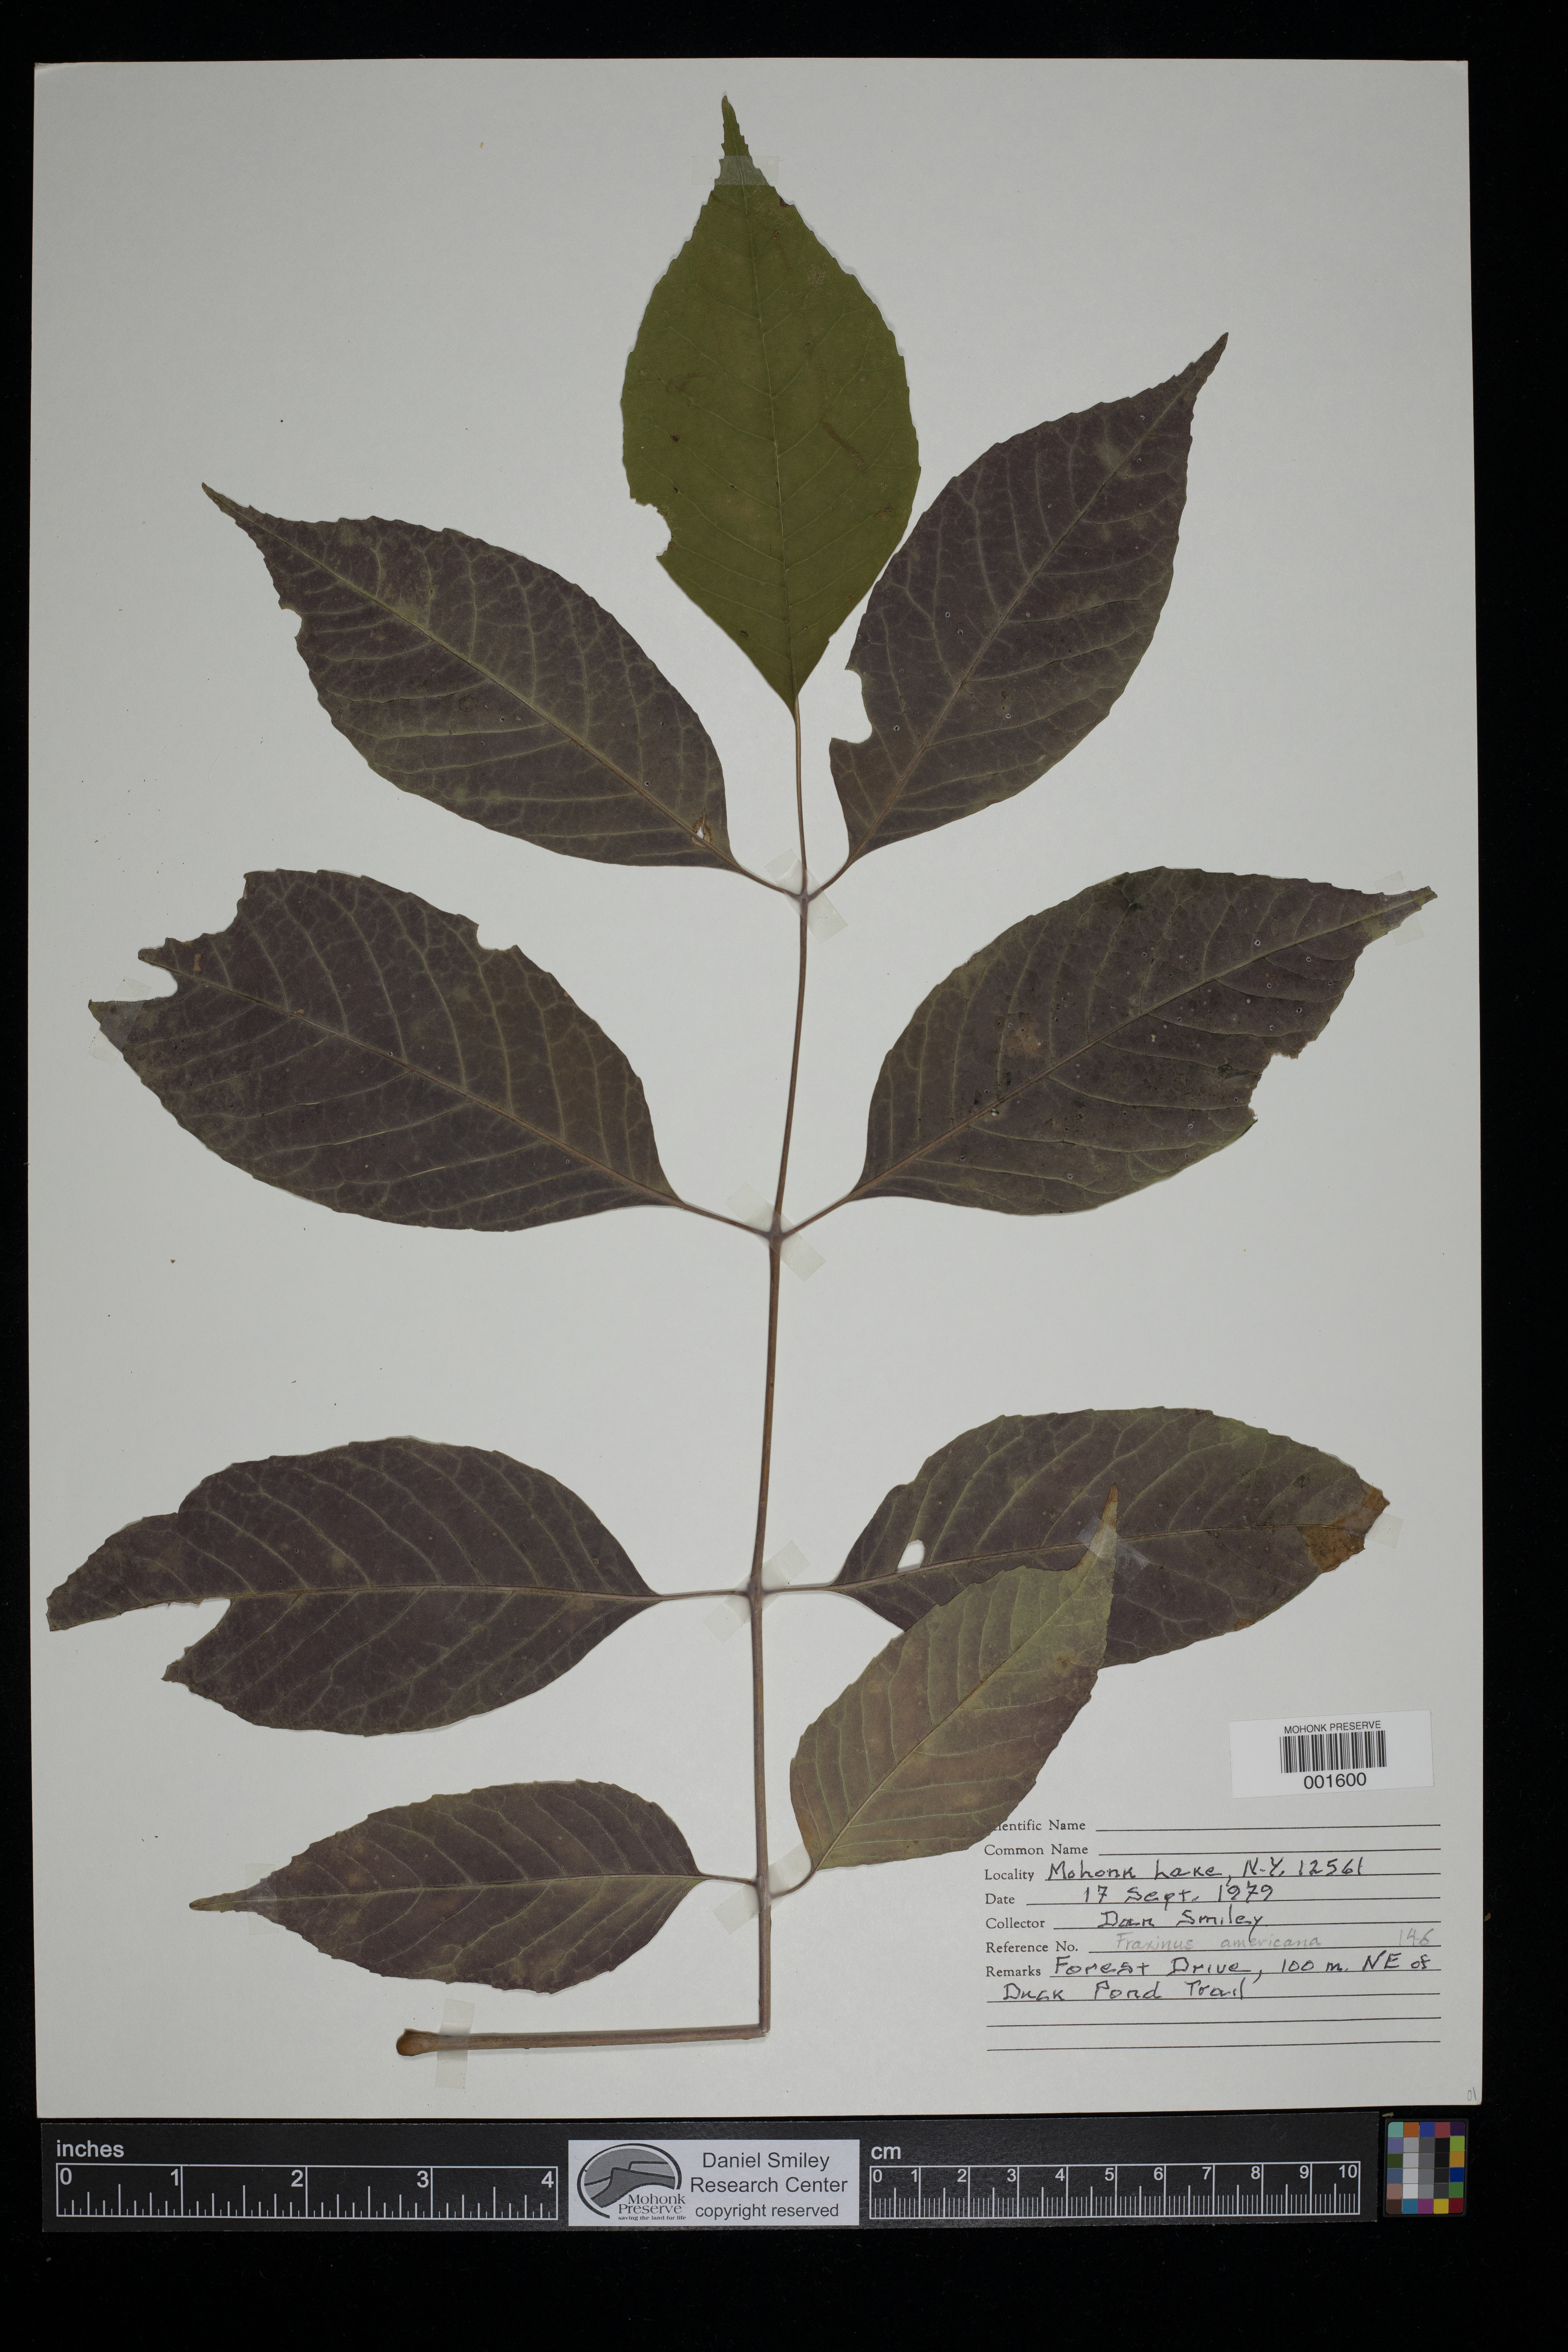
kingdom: Plantae
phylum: Tracheophyta
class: Magnoliopsida
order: Lamiales
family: Oleaceae
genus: Fraxinus
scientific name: Fraxinus americana
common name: White ash
